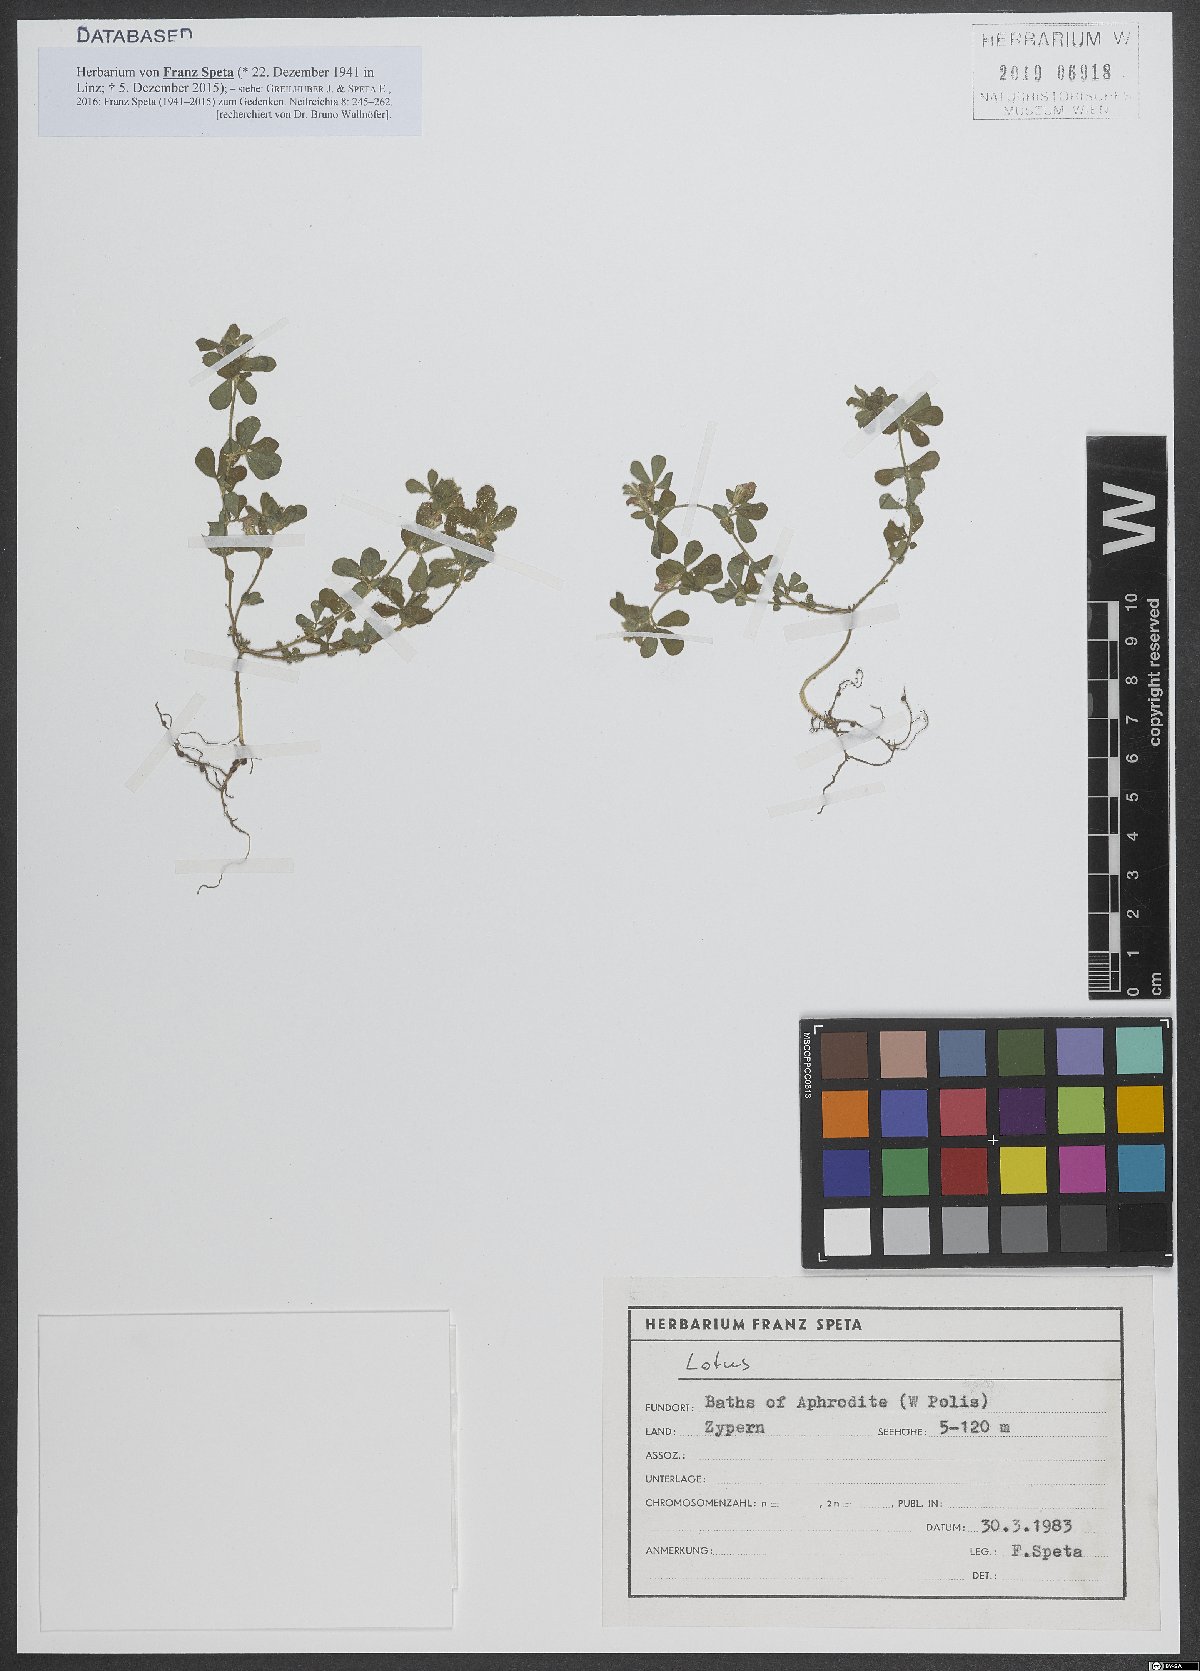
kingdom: Plantae
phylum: Tracheophyta
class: Magnoliopsida
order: Fabales
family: Fabaceae
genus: Lotus
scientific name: Lotus
